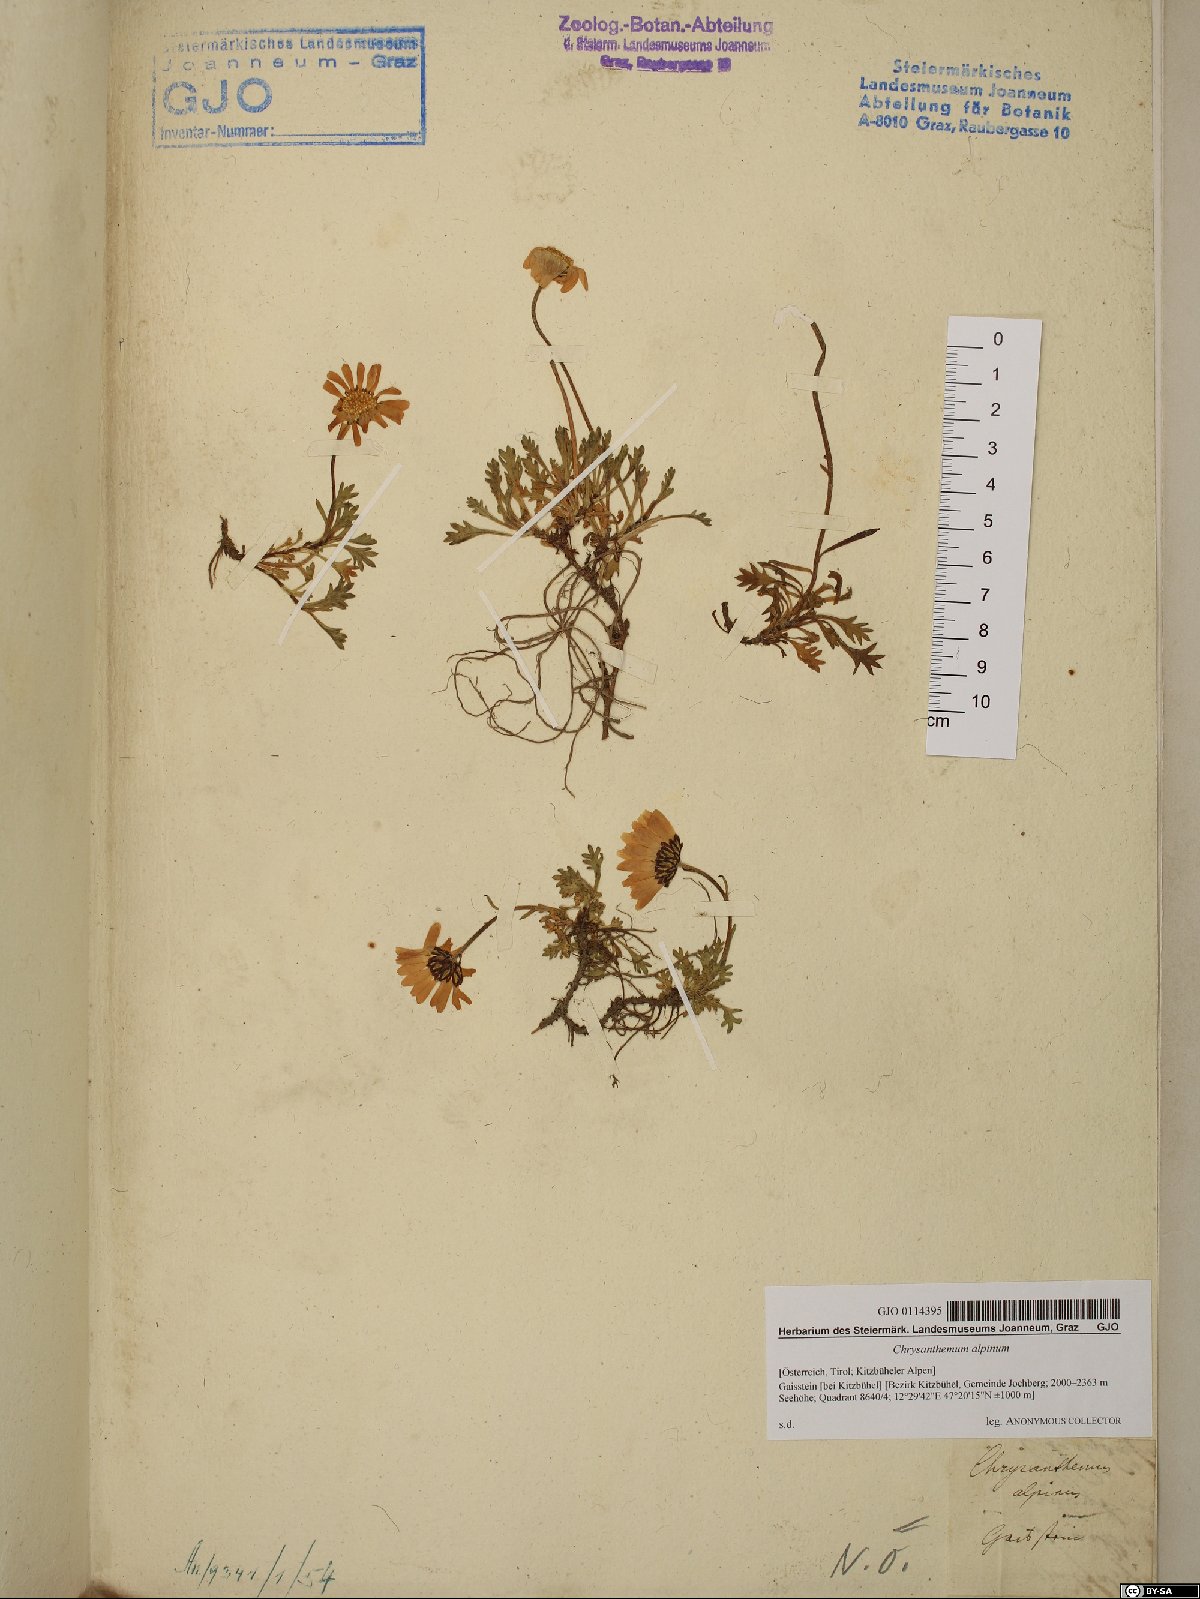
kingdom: Plantae
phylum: Tracheophyta
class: Magnoliopsida
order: Asterales
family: Asteraceae
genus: Leucanthemopsis
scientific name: Leucanthemopsis alpina
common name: Alpine moon daisy
